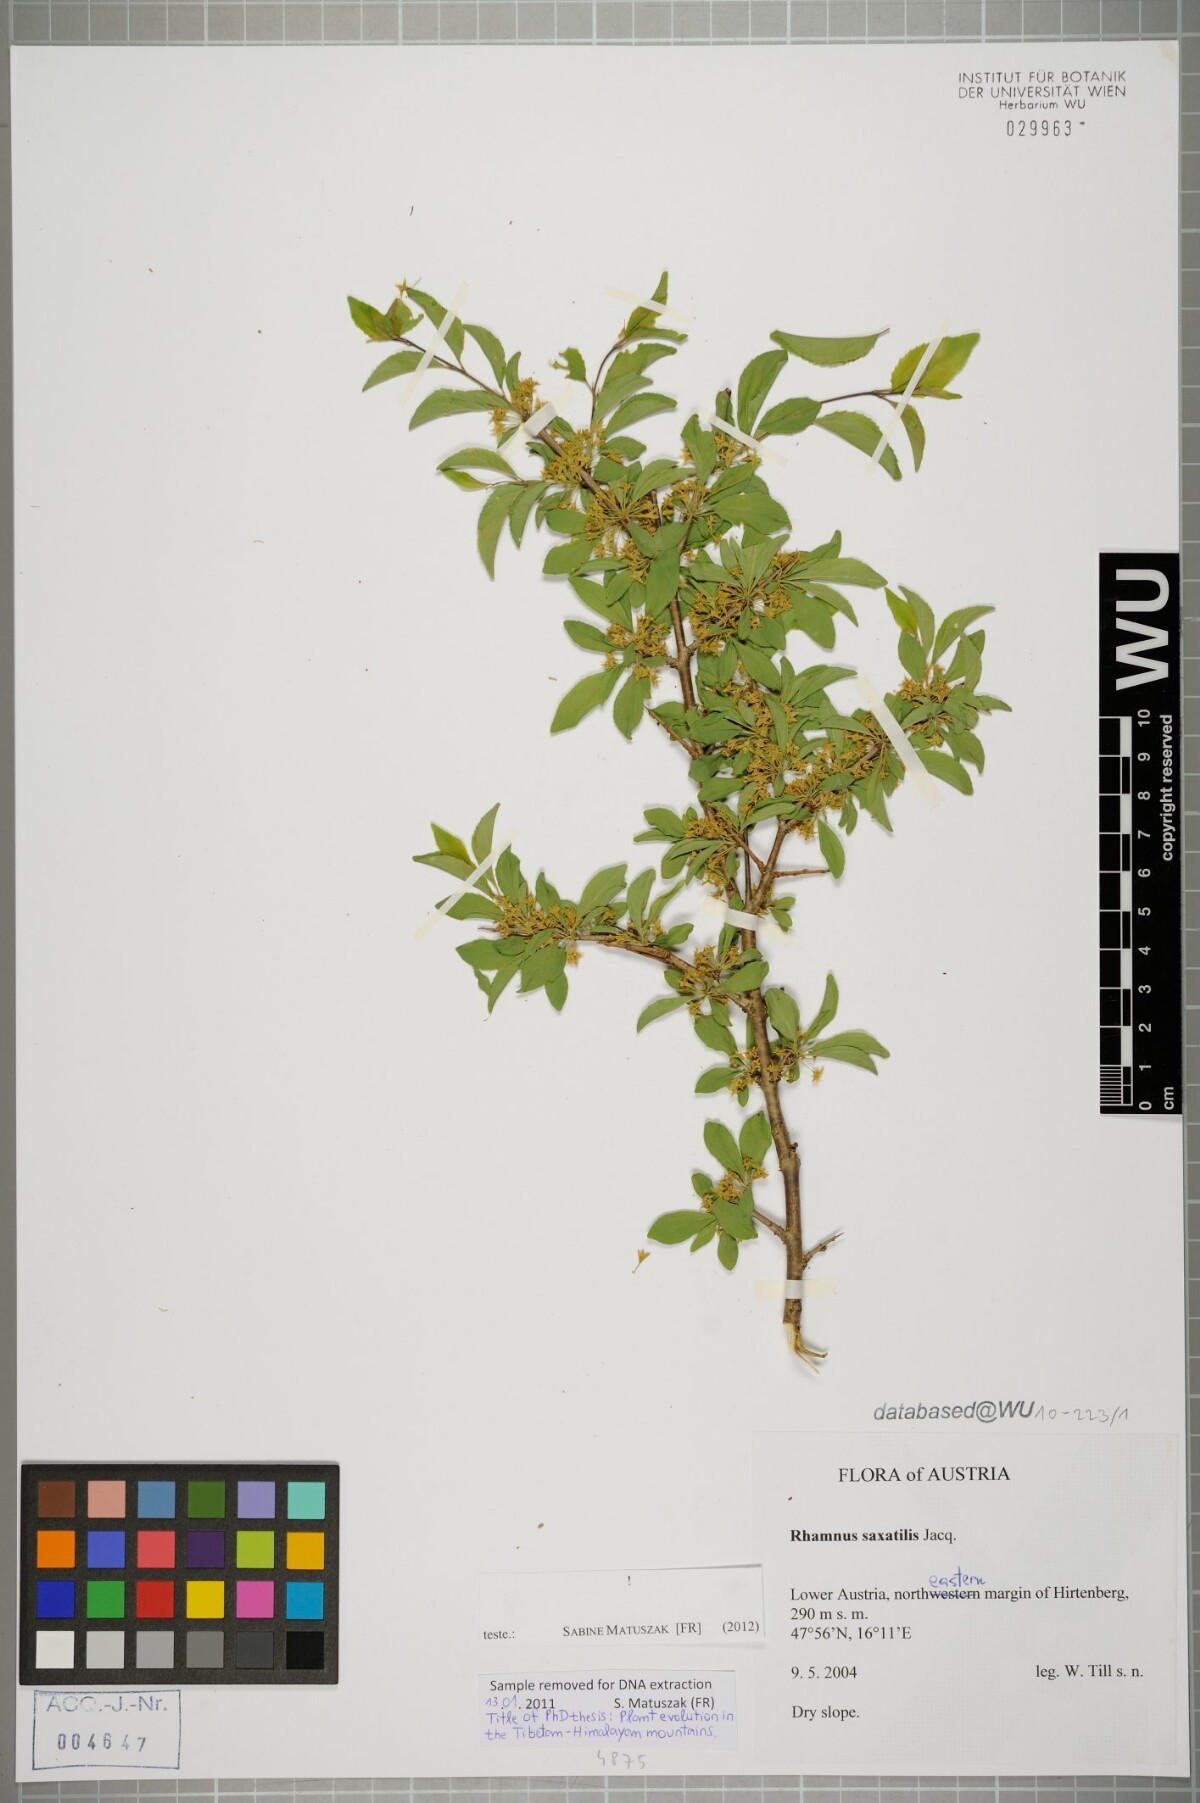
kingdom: Plantae
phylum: Tracheophyta
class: Magnoliopsida
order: Rosales
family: Rhamnaceae
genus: Rhamnus
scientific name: Rhamnus saxatilis
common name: Rock buckthorn
